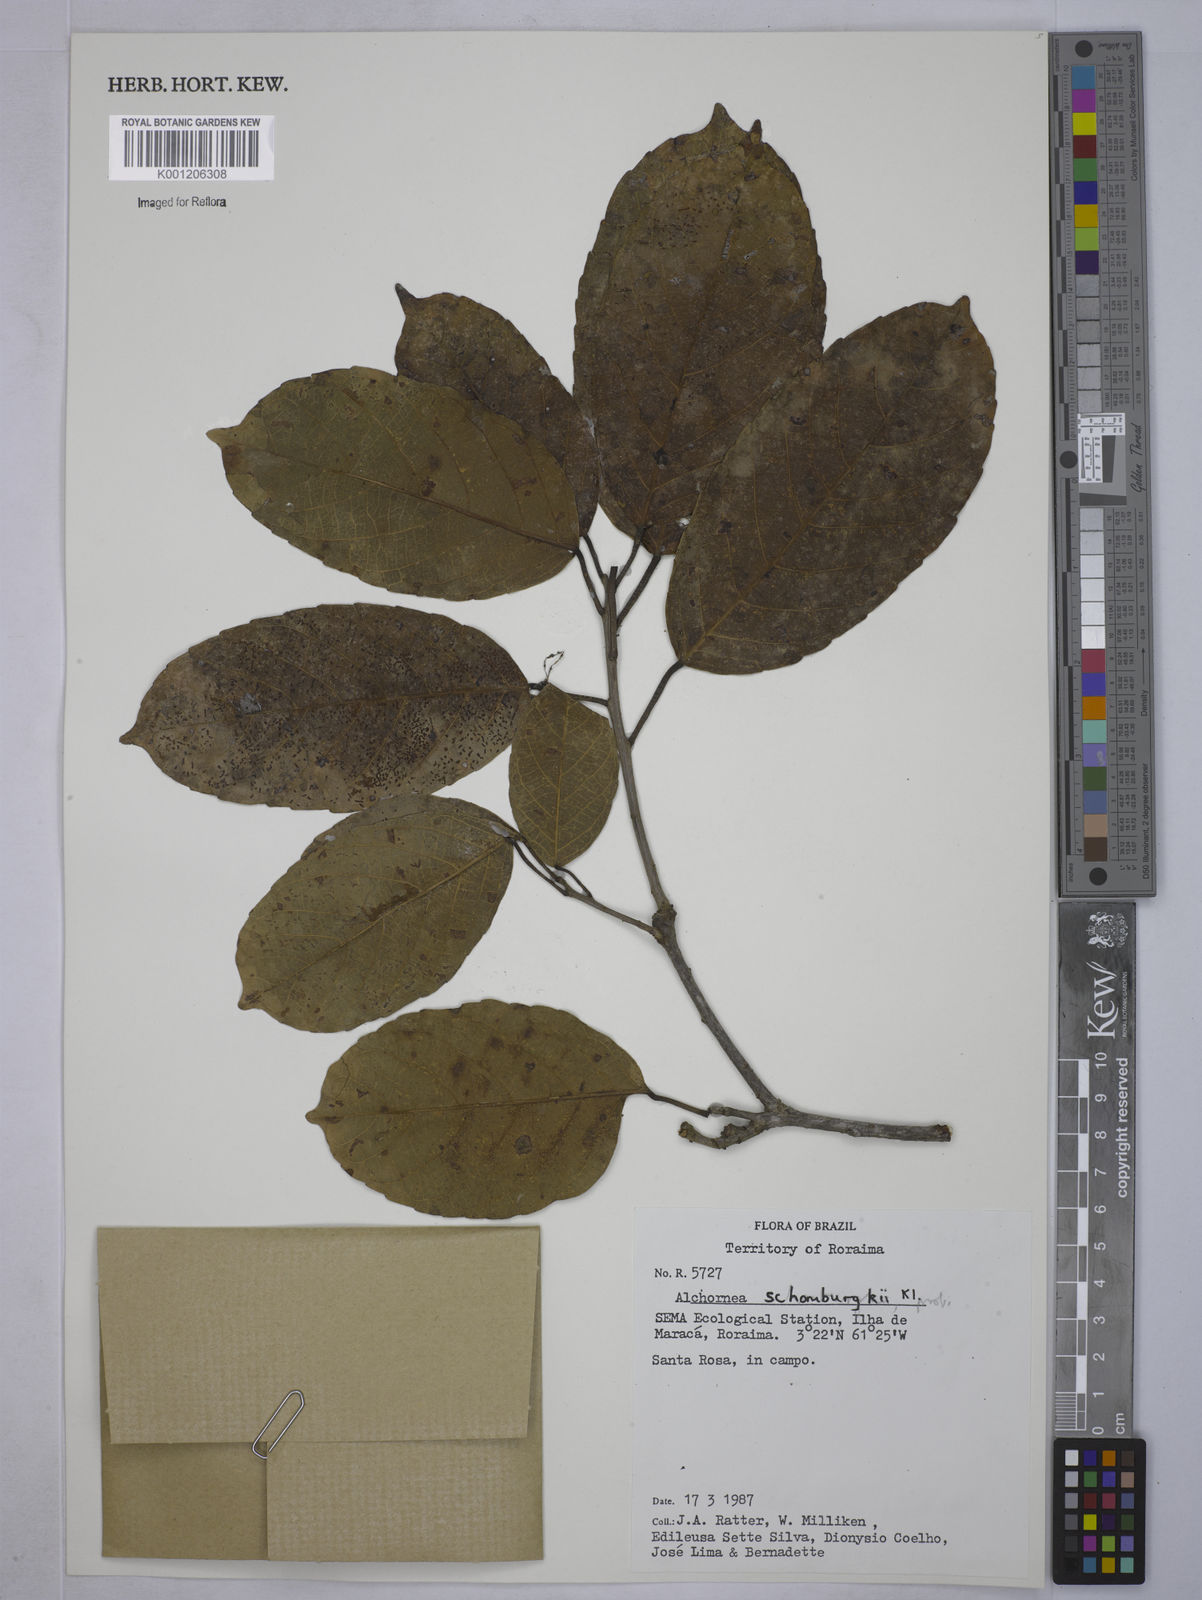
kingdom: Plantae
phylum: Tracheophyta
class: Magnoliopsida
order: Malpighiales
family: Euphorbiaceae
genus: Alchornea
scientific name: Alchornea discolor
